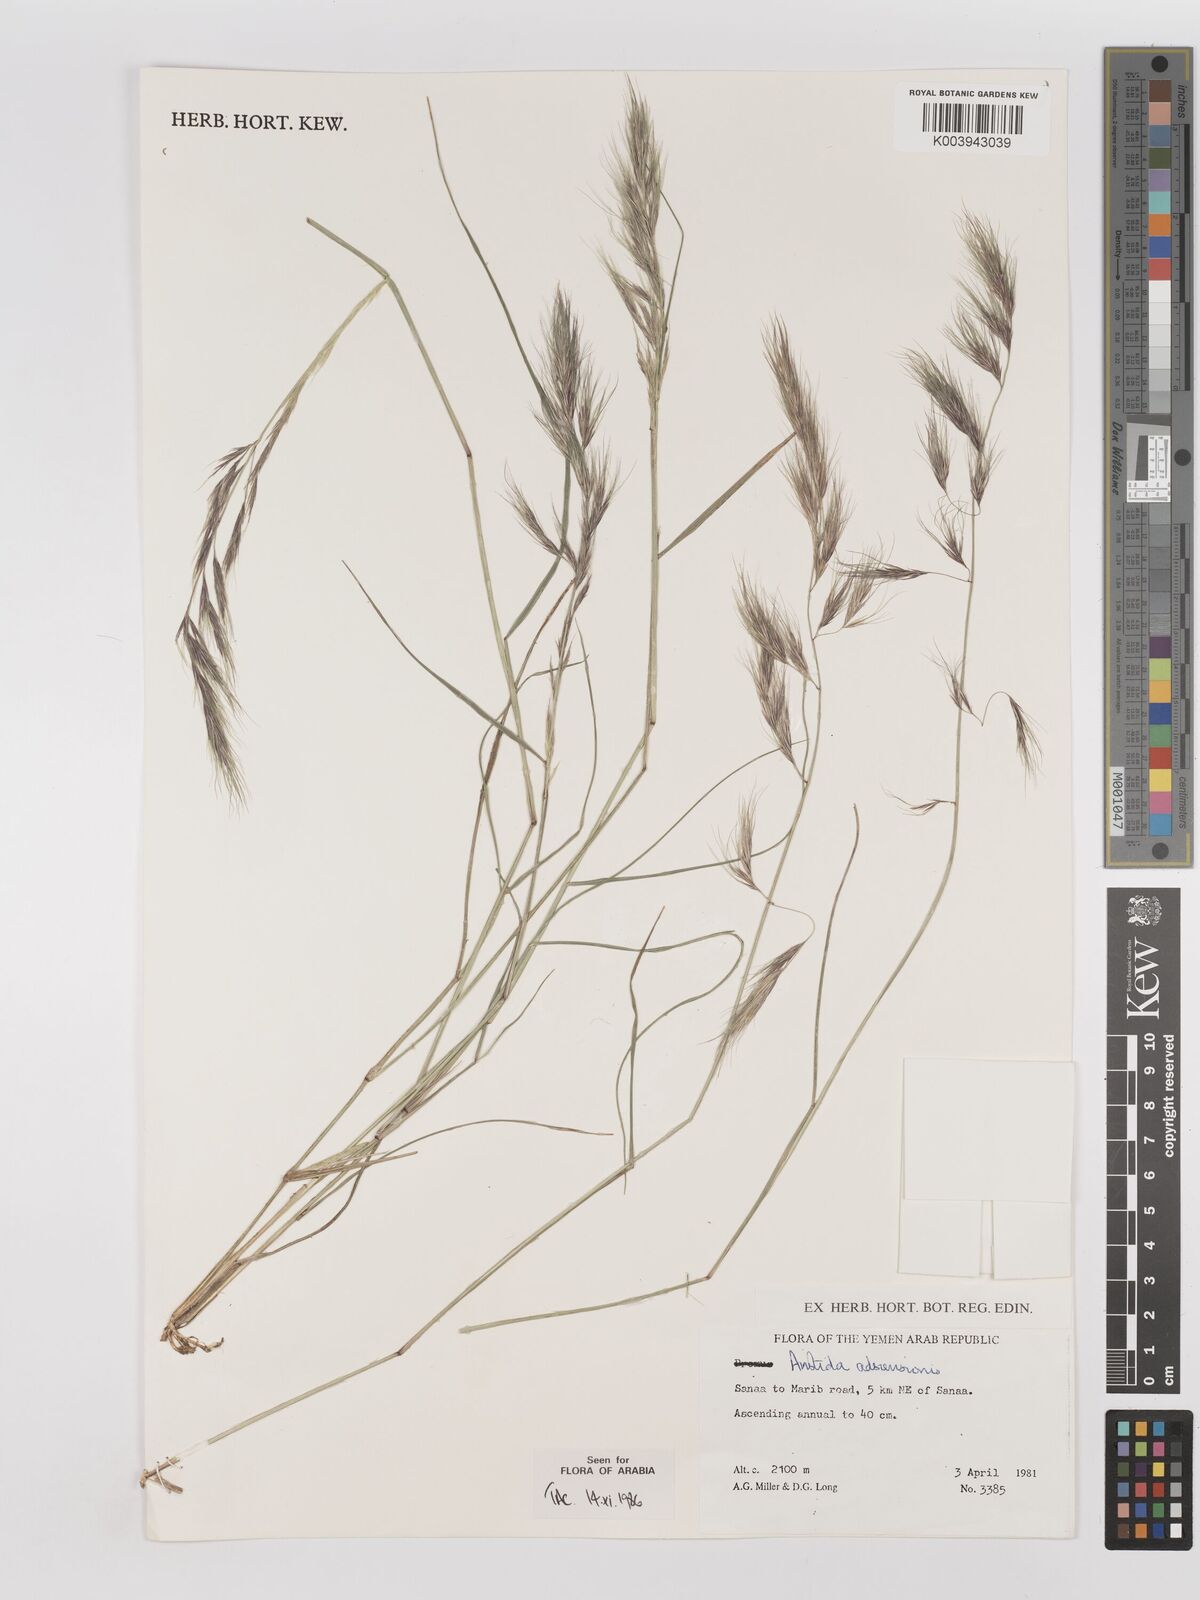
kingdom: Plantae
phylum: Tracheophyta
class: Liliopsida
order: Poales
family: Poaceae
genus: Aristida
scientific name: Aristida adscensionis
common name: Sixweeks threeawn
